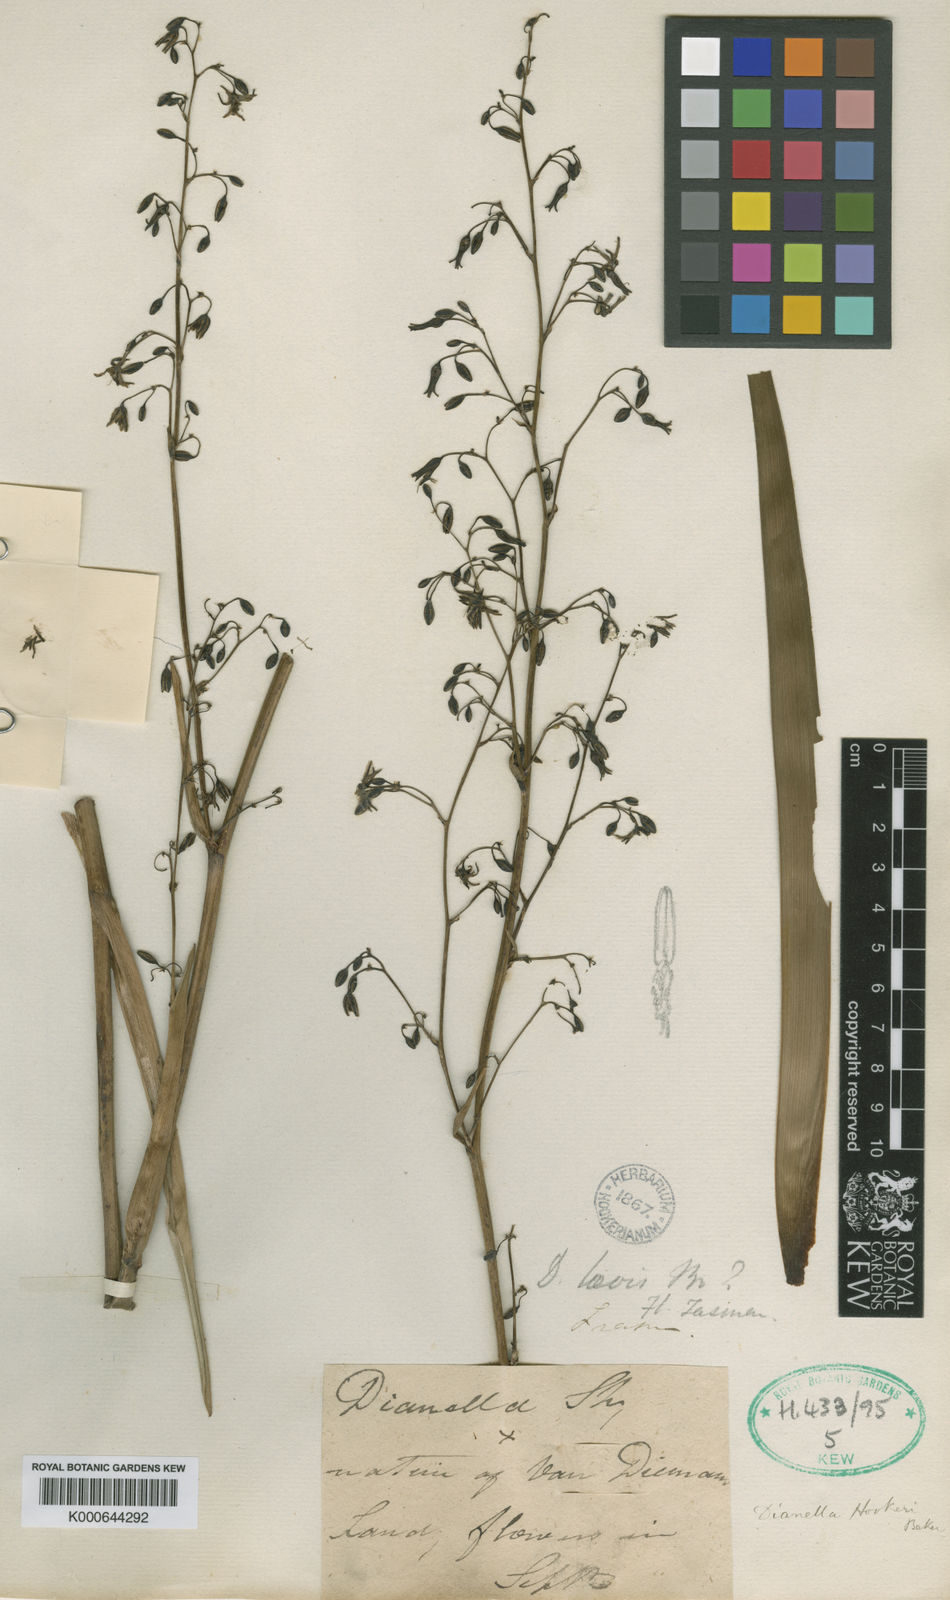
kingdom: Plantae
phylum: Tracheophyta
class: Liliopsida
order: Asparagales
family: Asphodelaceae
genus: Dianella
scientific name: Dianella tasmanica
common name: Tasman flax-lily
